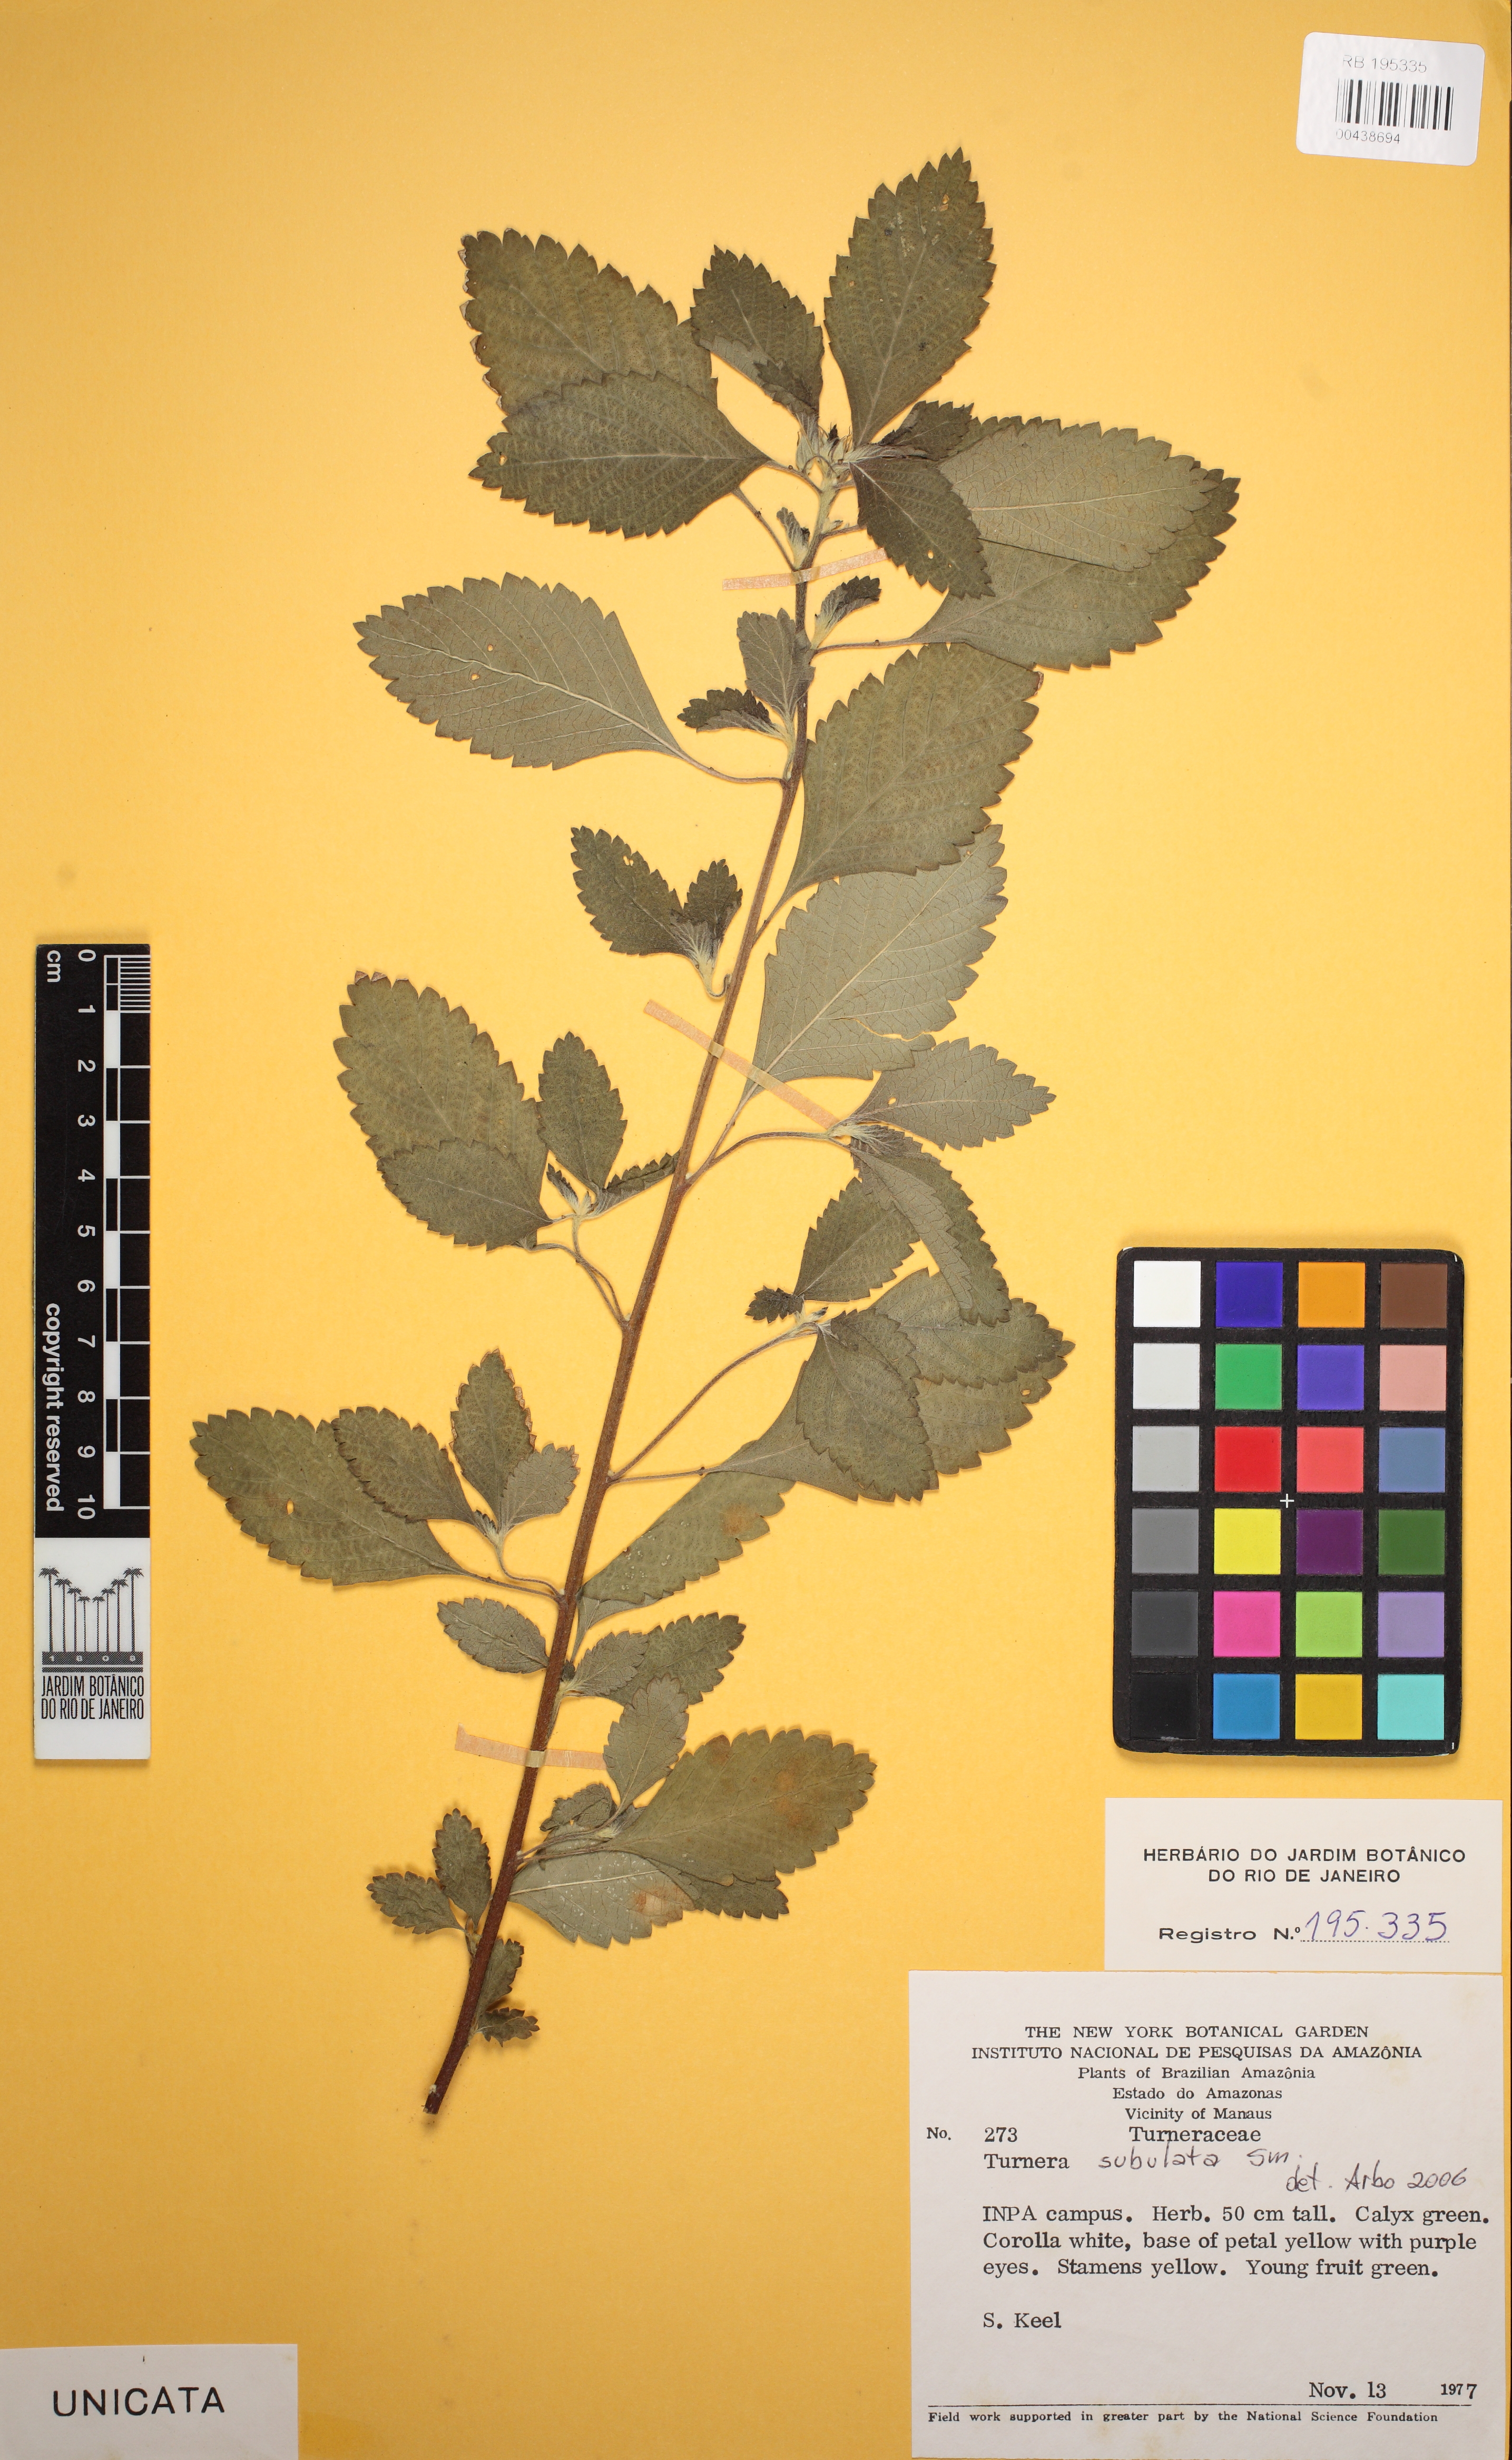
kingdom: Plantae
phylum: Tracheophyta
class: Magnoliopsida
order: Malpighiales
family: Turneraceae
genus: Turnera
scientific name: Turnera subulata
